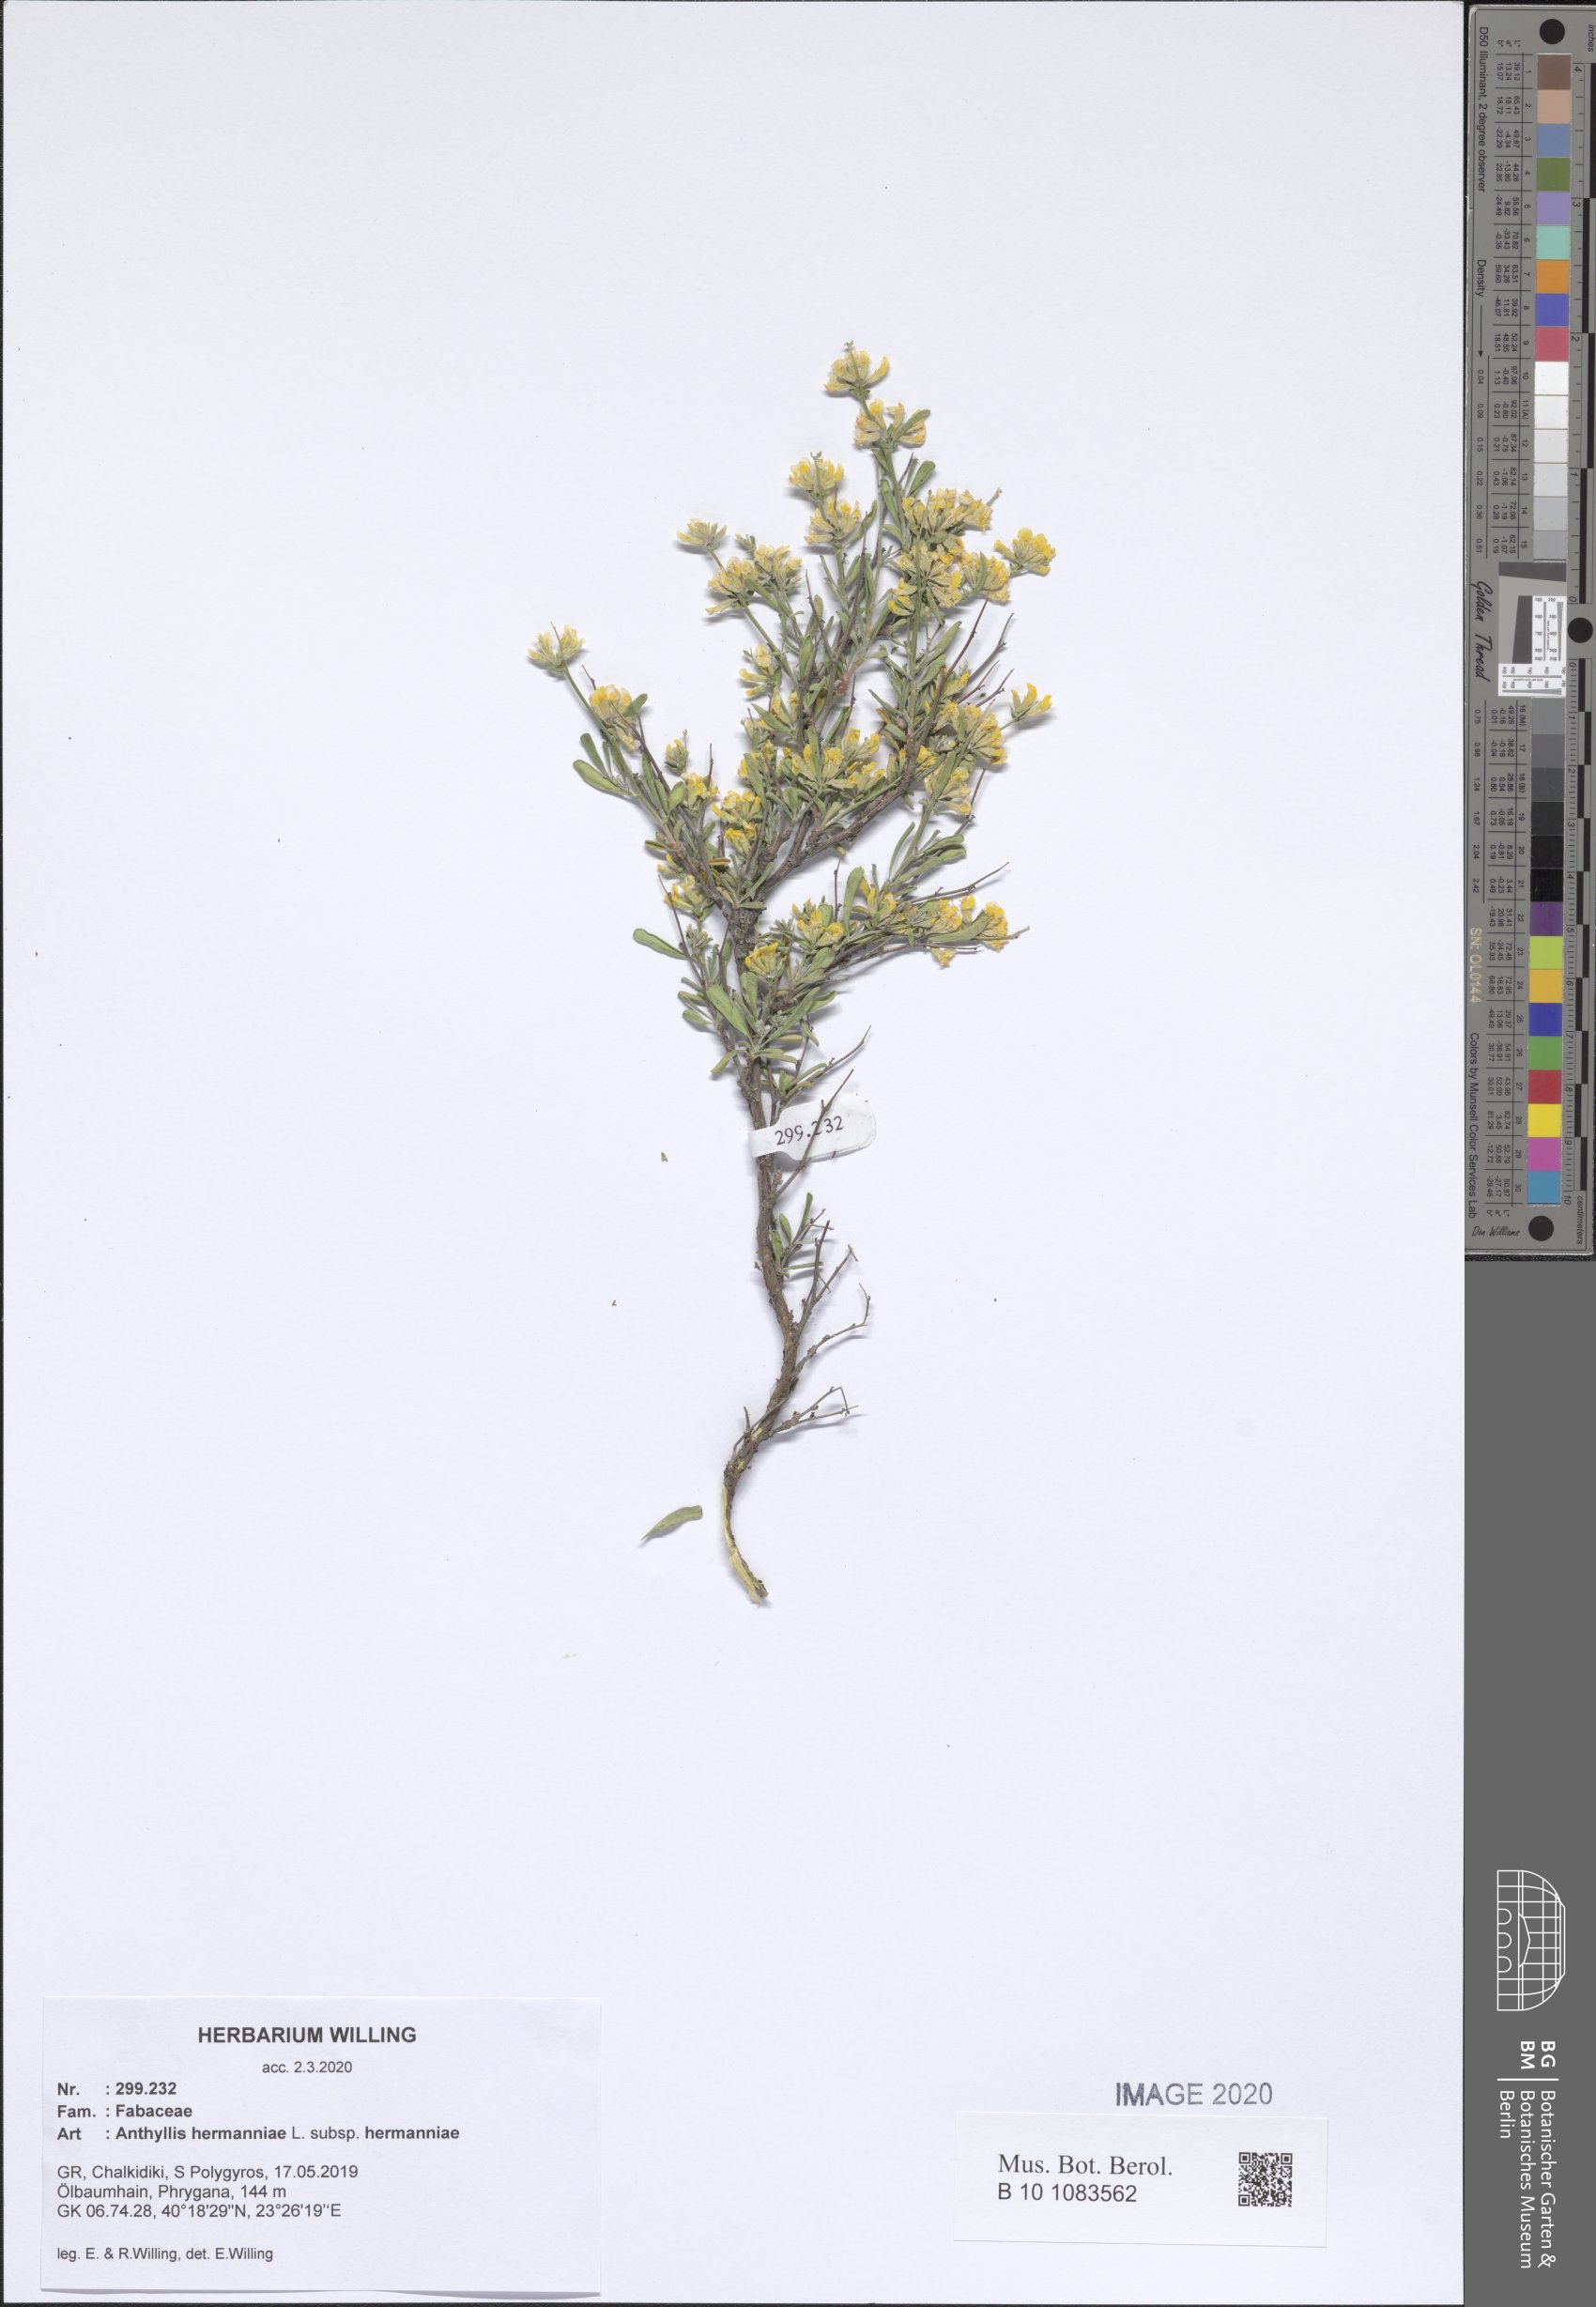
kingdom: Plantae
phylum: Tracheophyta
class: Magnoliopsida
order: Fabales
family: Fabaceae
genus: Anthyllis
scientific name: Anthyllis hermanniae
